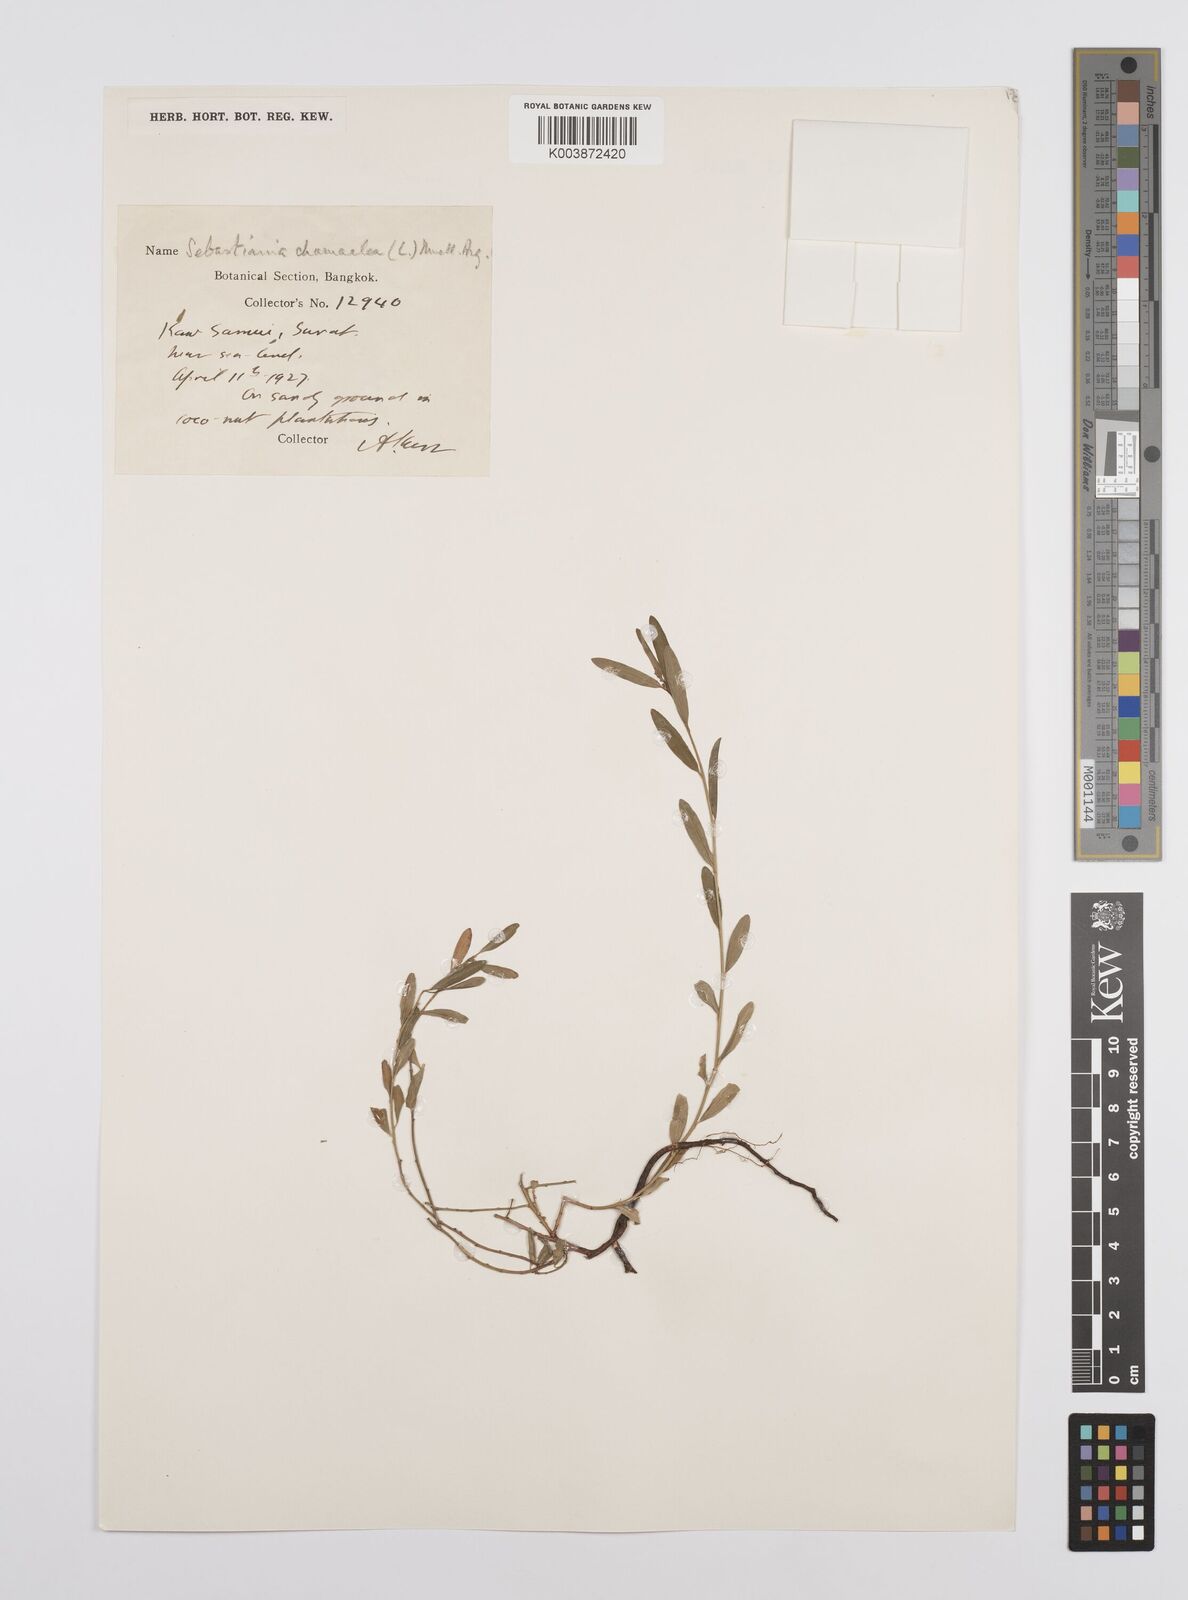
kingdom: Plantae
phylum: Tracheophyta
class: Magnoliopsida
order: Malpighiales
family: Euphorbiaceae
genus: Microstachys
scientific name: Microstachys chamaelea
